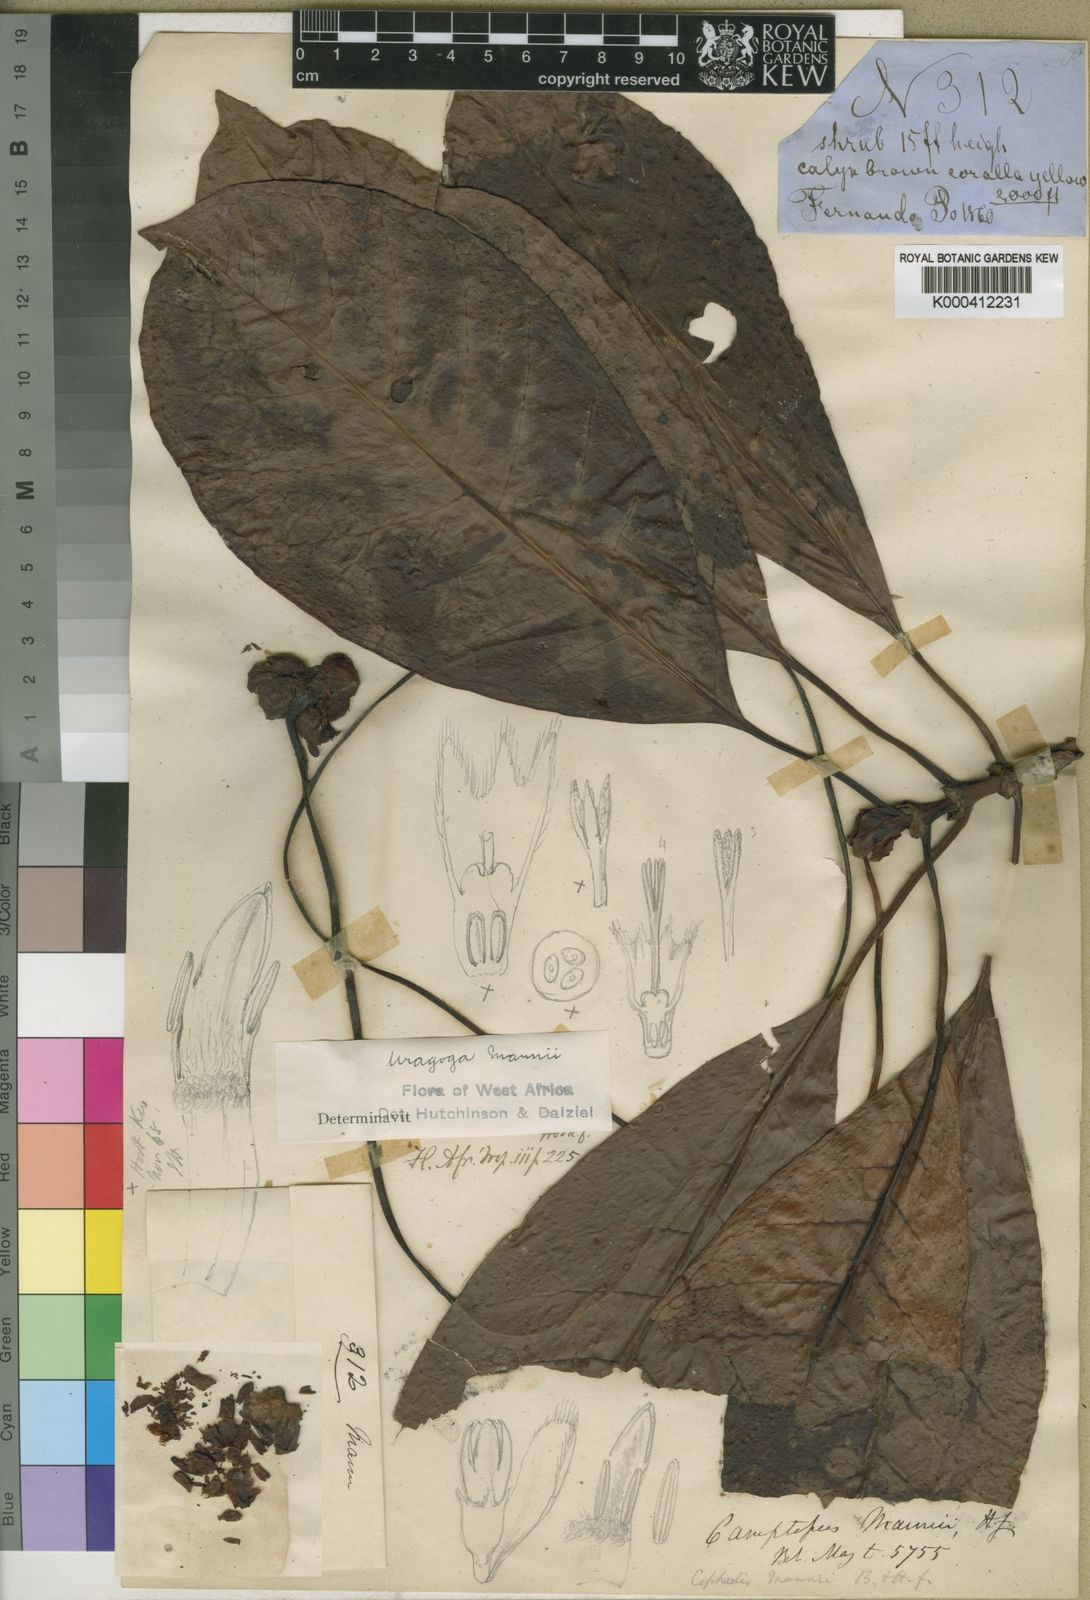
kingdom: Plantae
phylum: Tracheophyta
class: Magnoliopsida
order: Gentianales
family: Rubiaceae
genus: Psychotria
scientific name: Psychotria camptopus
